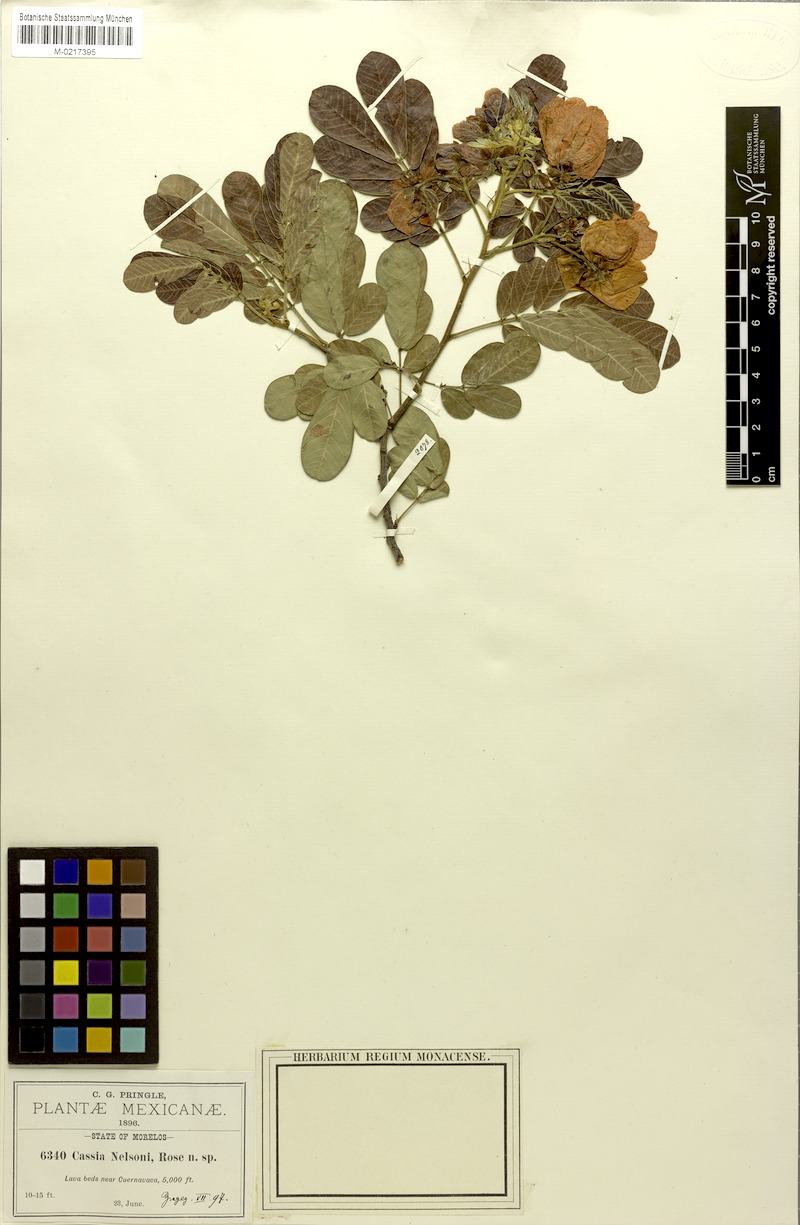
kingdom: Plantae
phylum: Tracheophyta
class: Magnoliopsida
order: Fabales
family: Fabaceae
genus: Senna
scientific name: Senna skinneri
